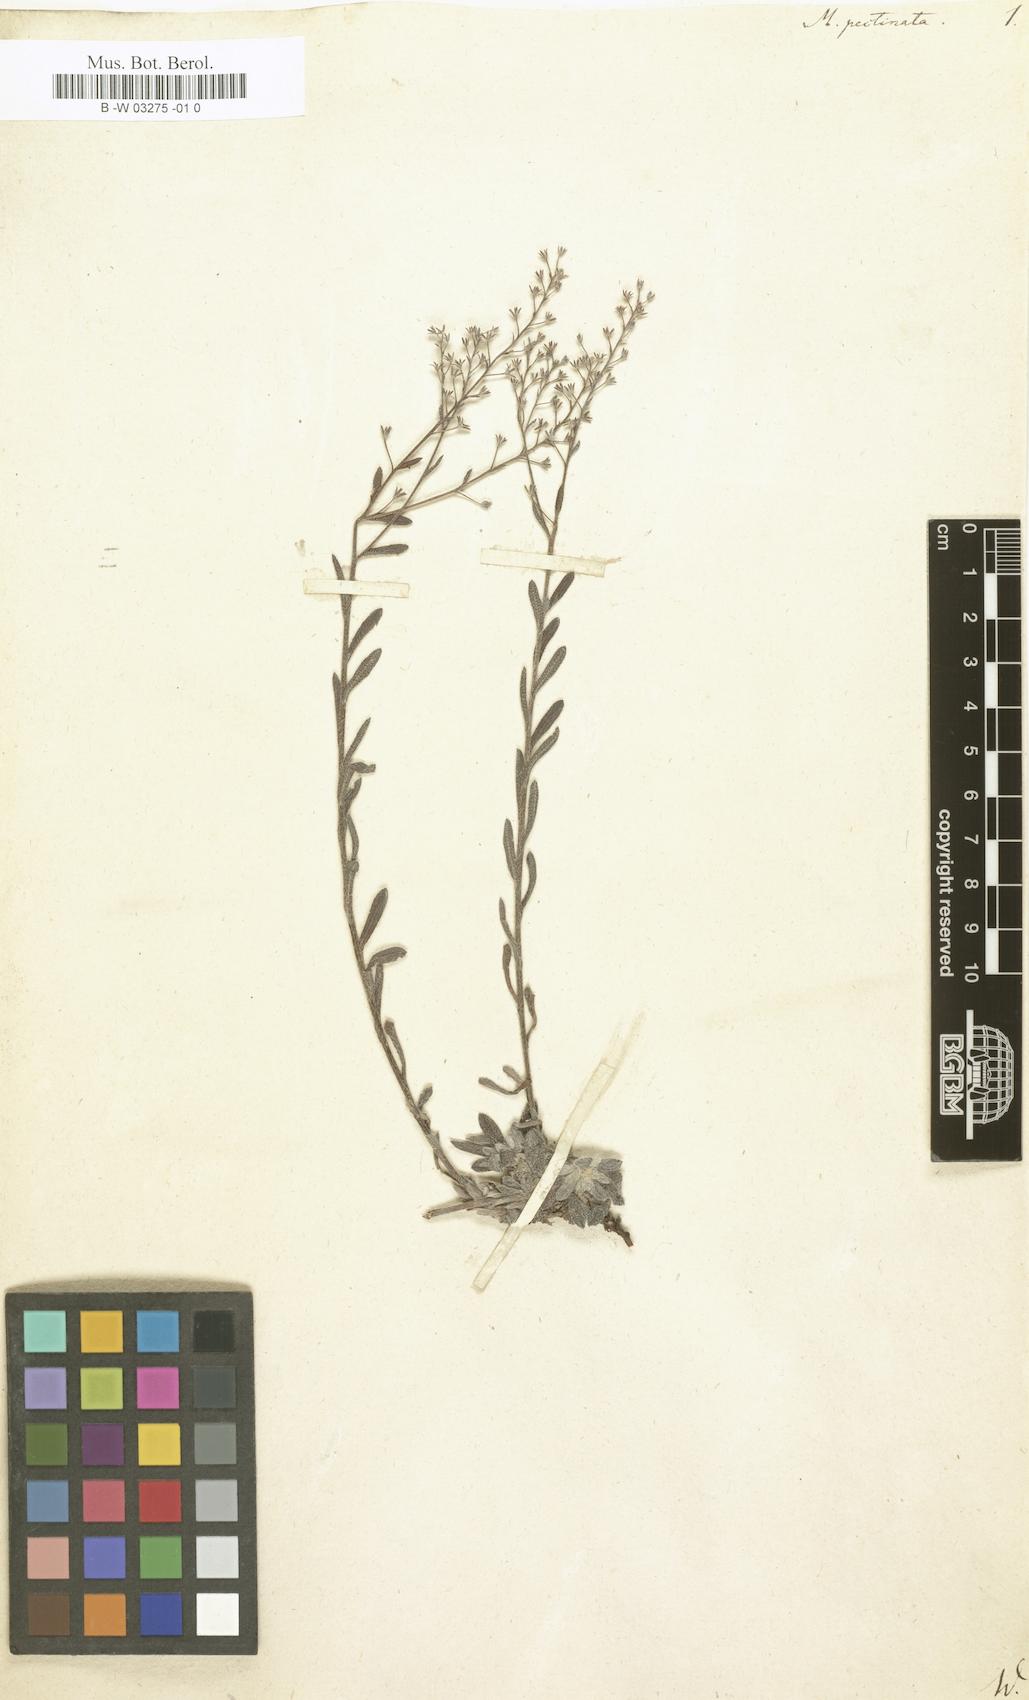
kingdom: Plantae
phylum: Tracheophyta
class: Magnoliopsida
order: Boraginales
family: Boraginaceae
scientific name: Boraginaceae
